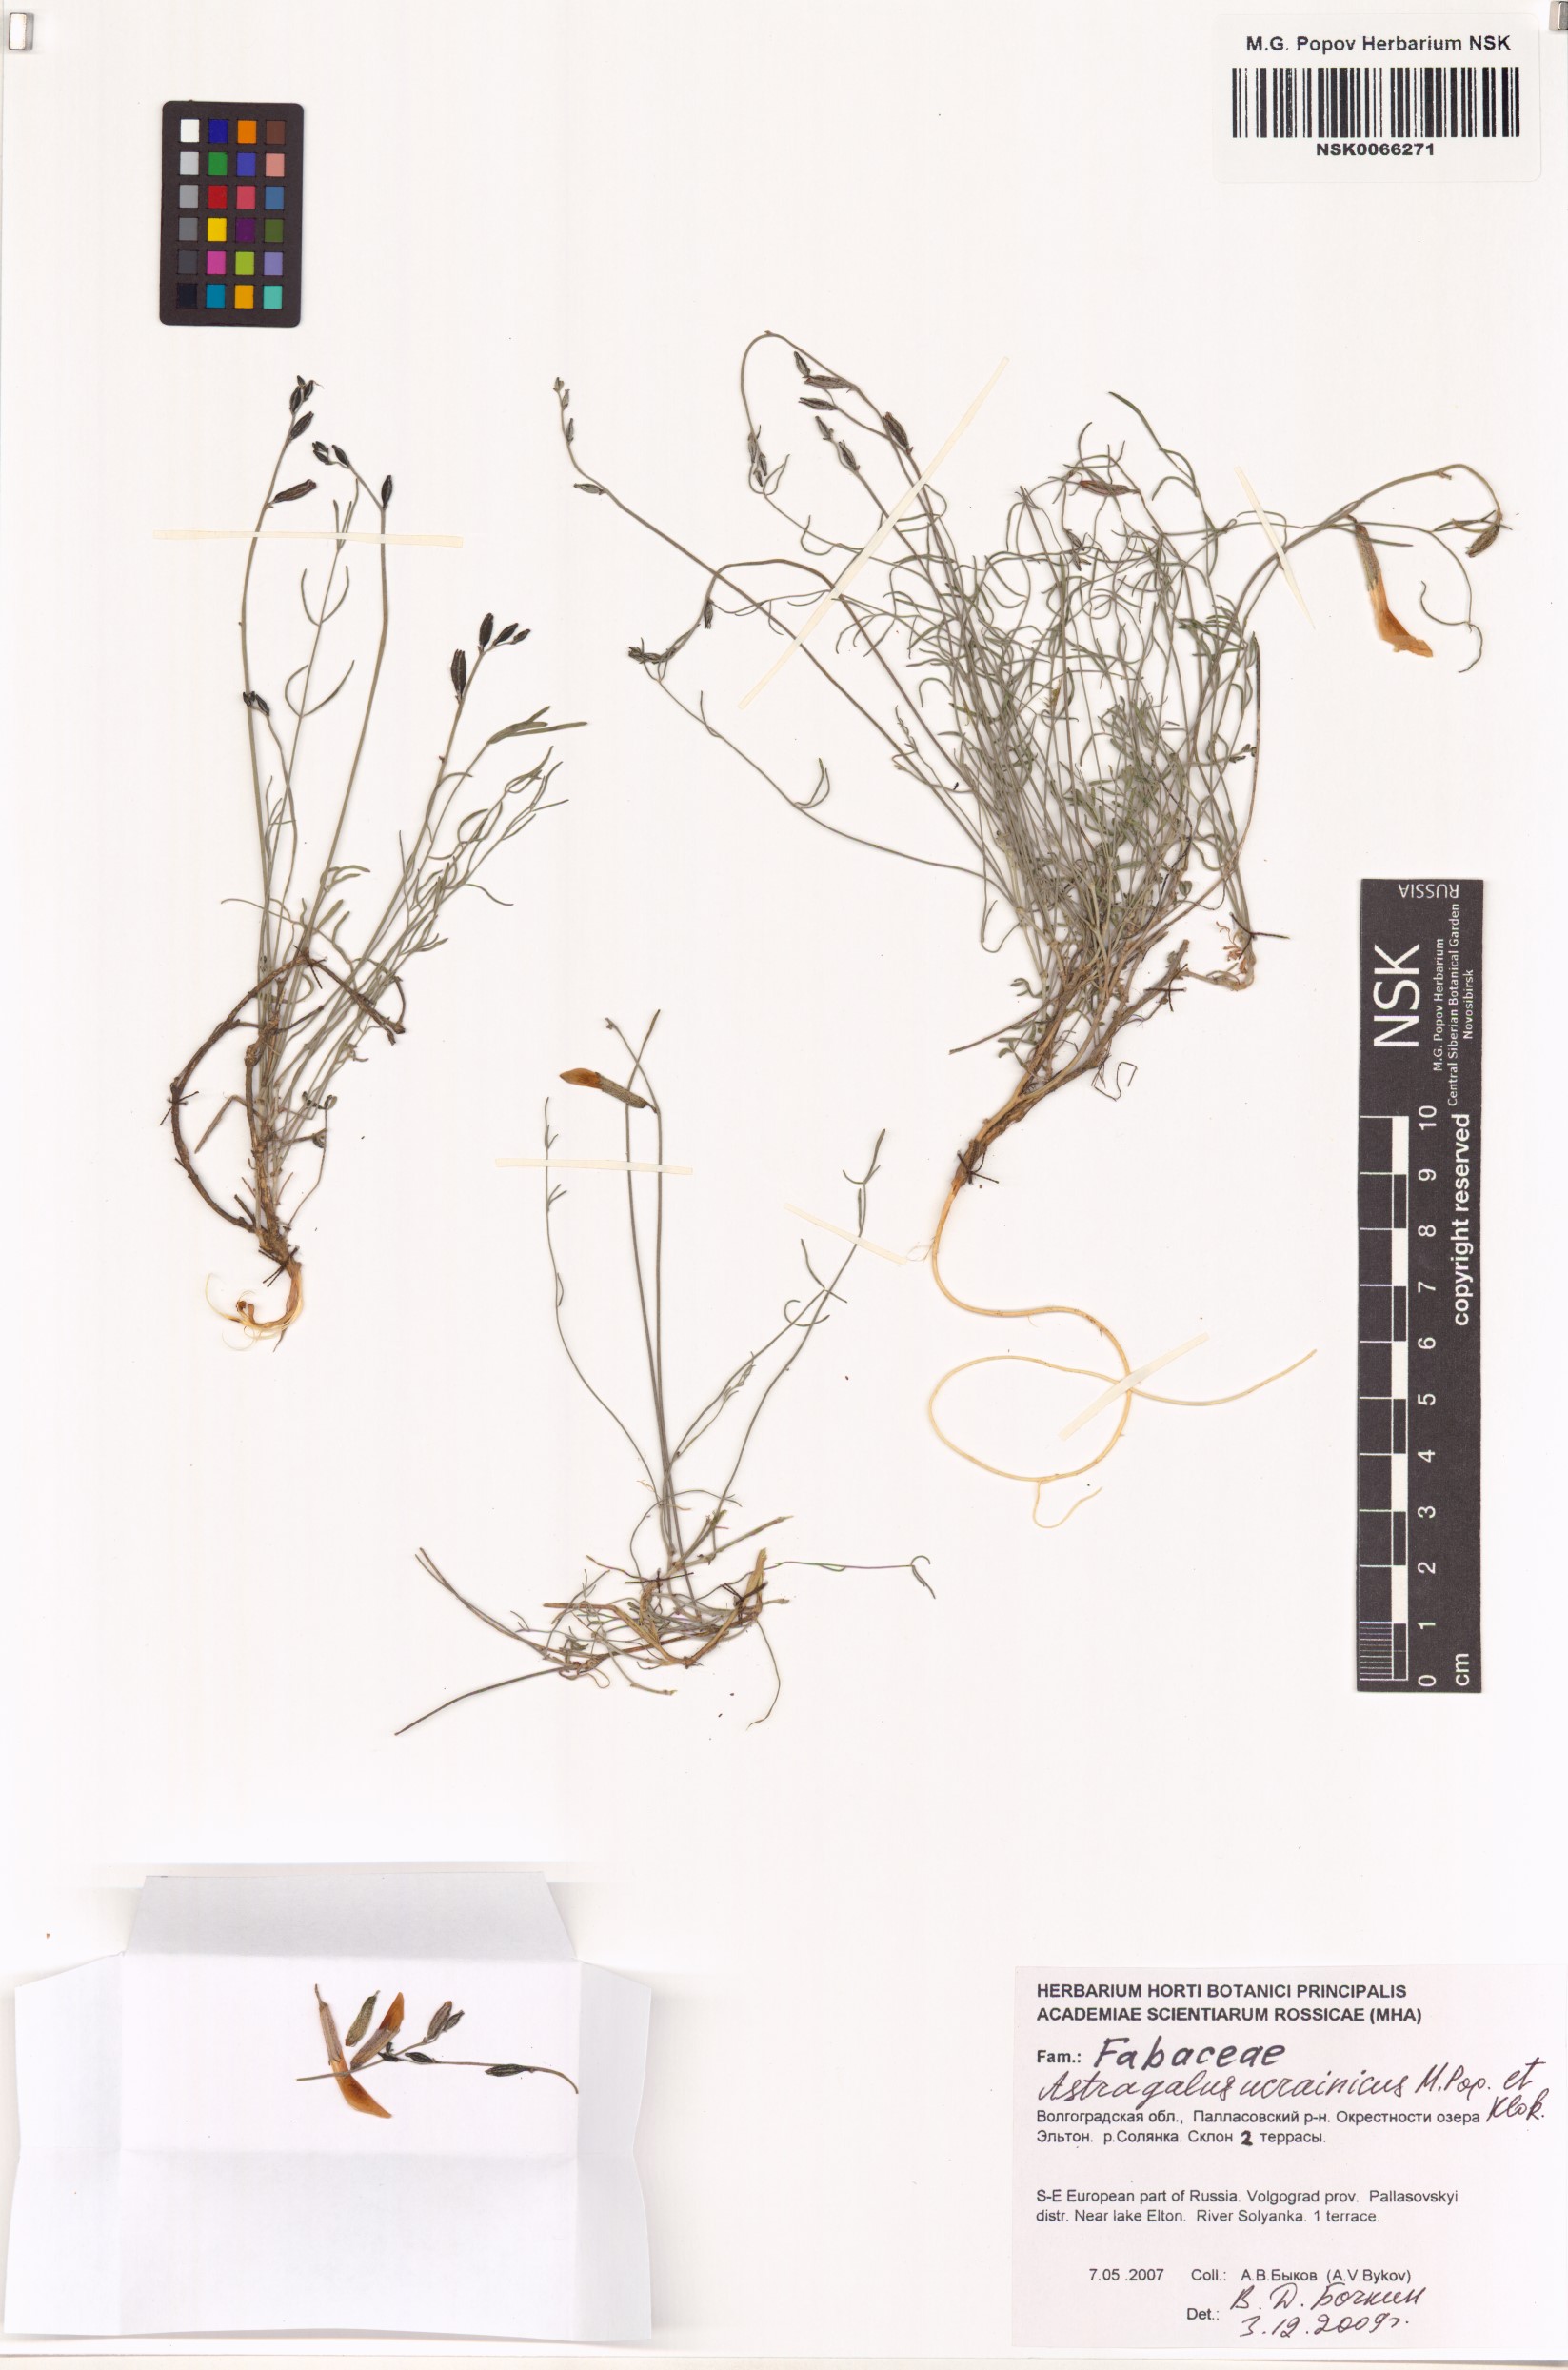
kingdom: Plantae
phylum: Tracheophyta
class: Magnoliopsida
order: Fabales
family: Fabaceae
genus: Astragalus
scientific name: Astragalus ucrainicus
